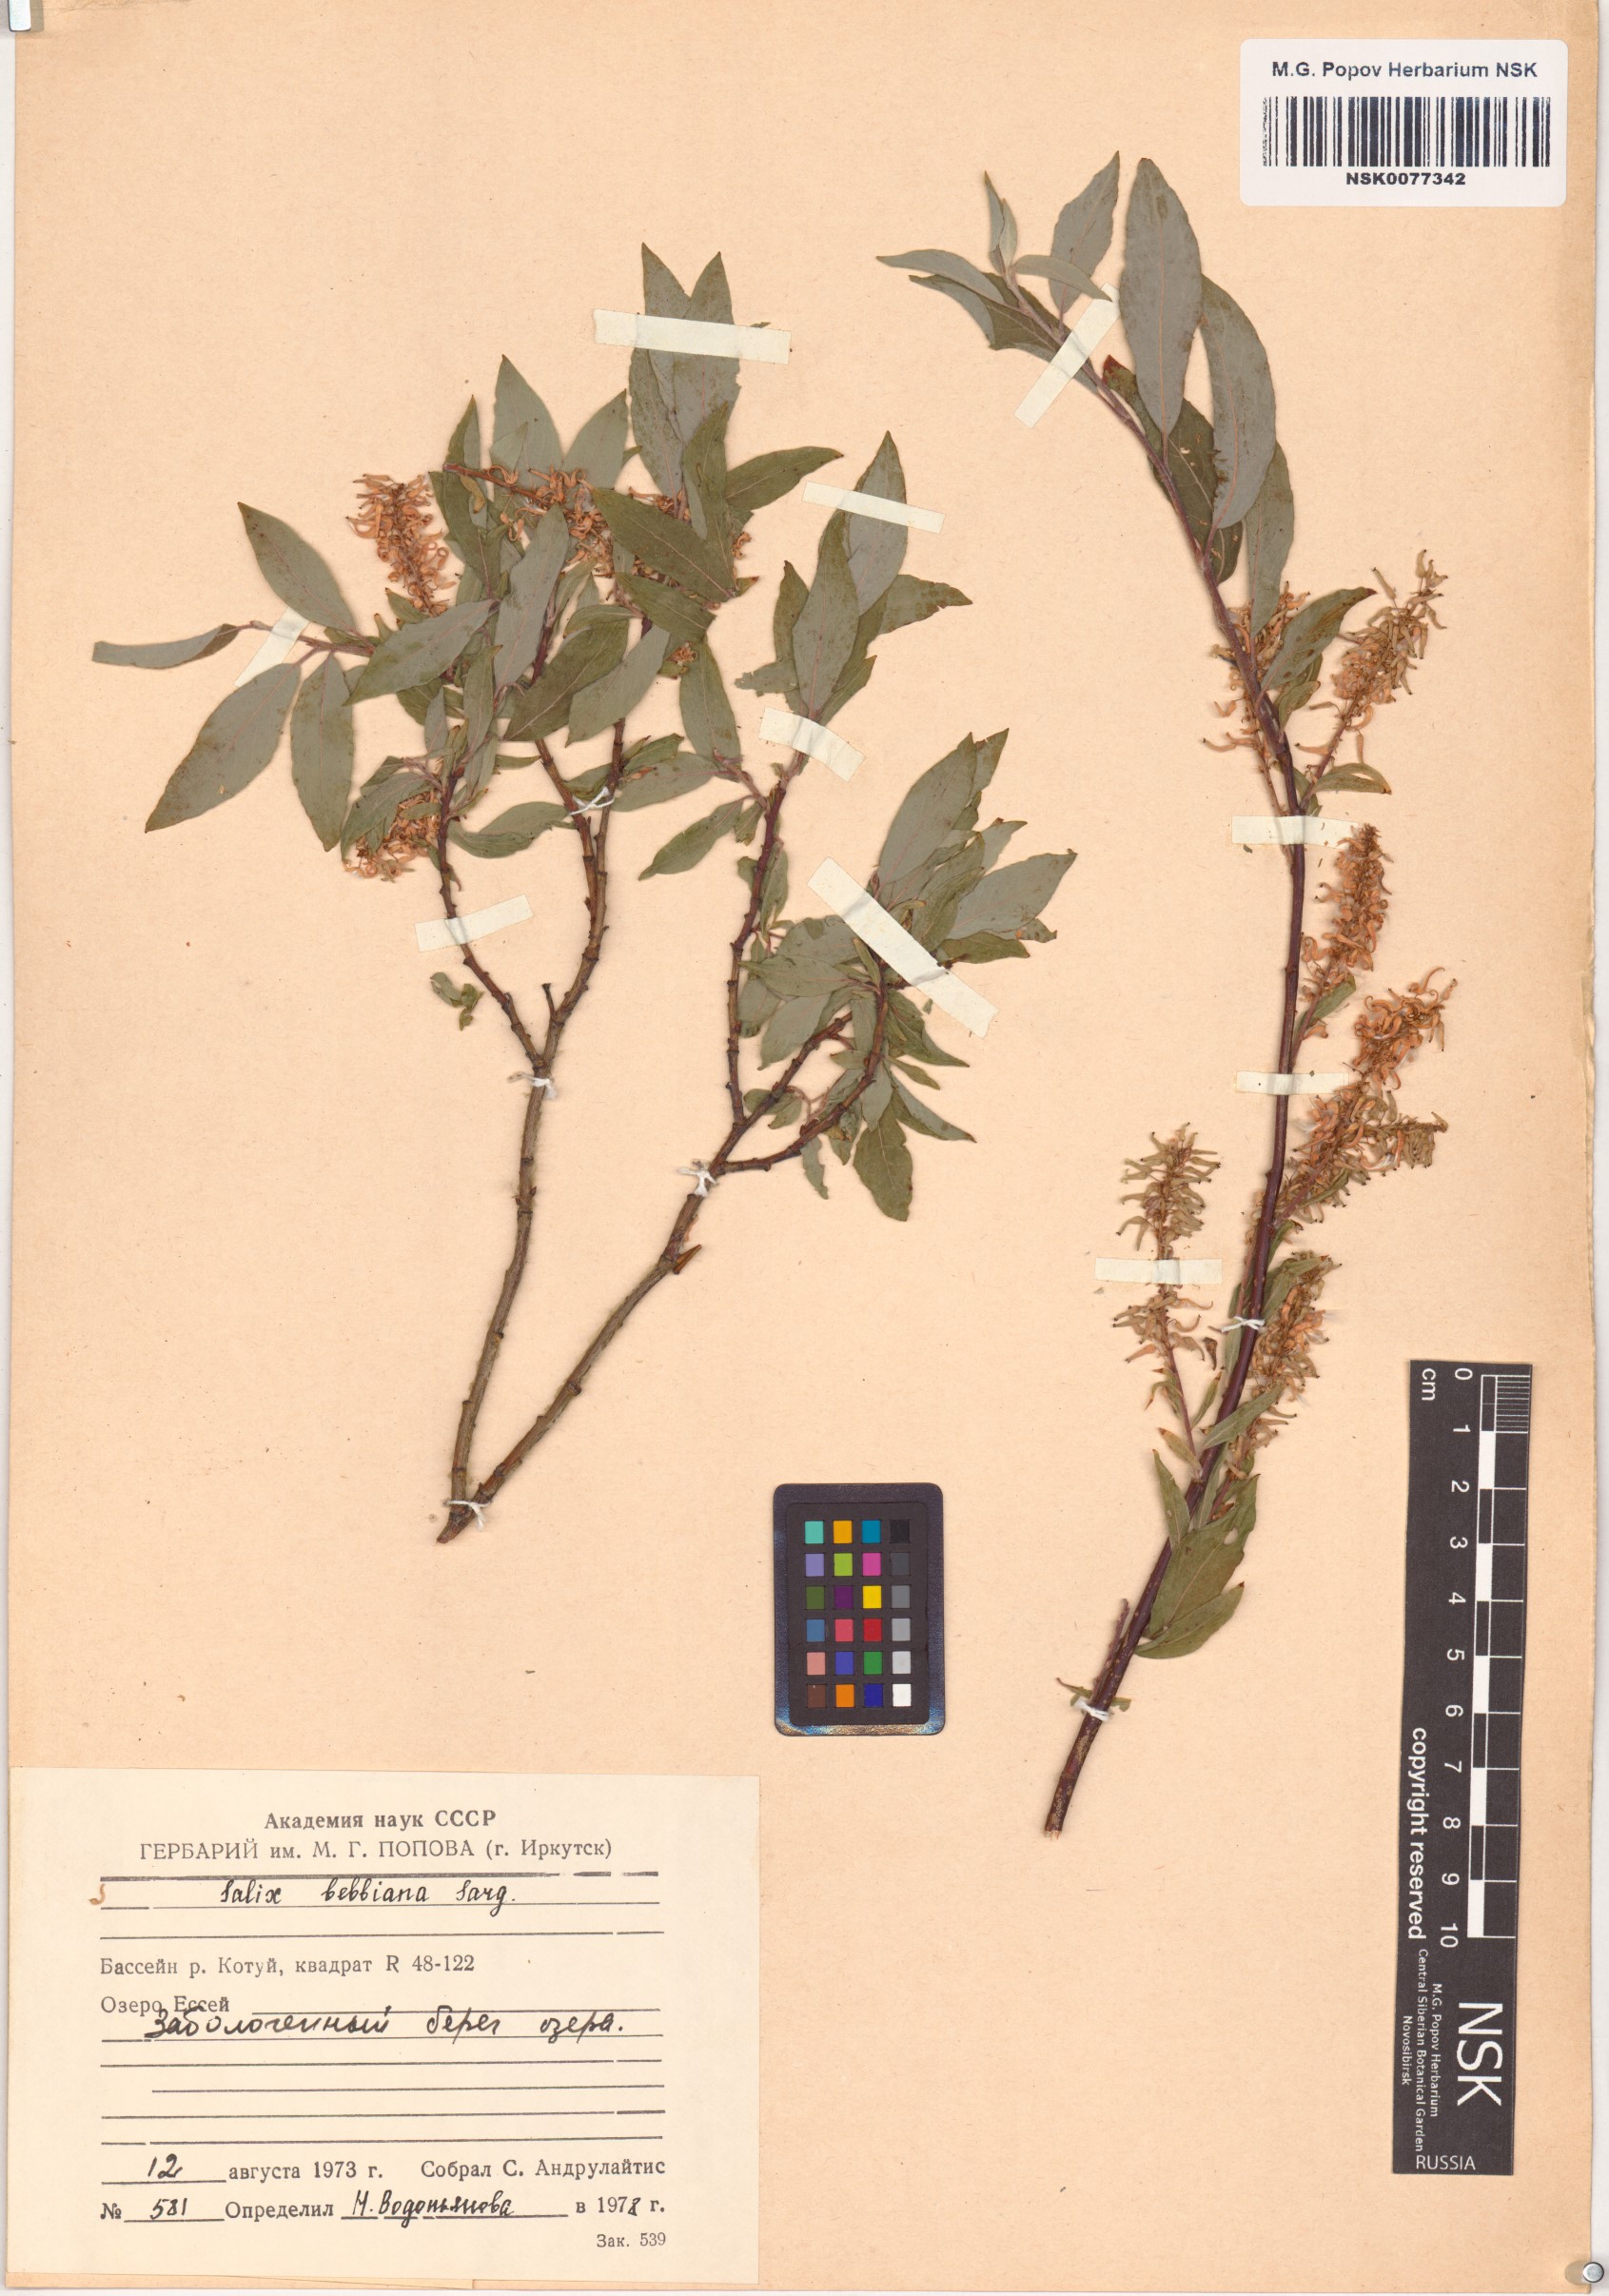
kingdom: Plantae
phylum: Tracheophyta
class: Magnoliopsida
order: Malpighiales
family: Salicaceae
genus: Salix
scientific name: Salix bebbiana
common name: Bebb's willow
